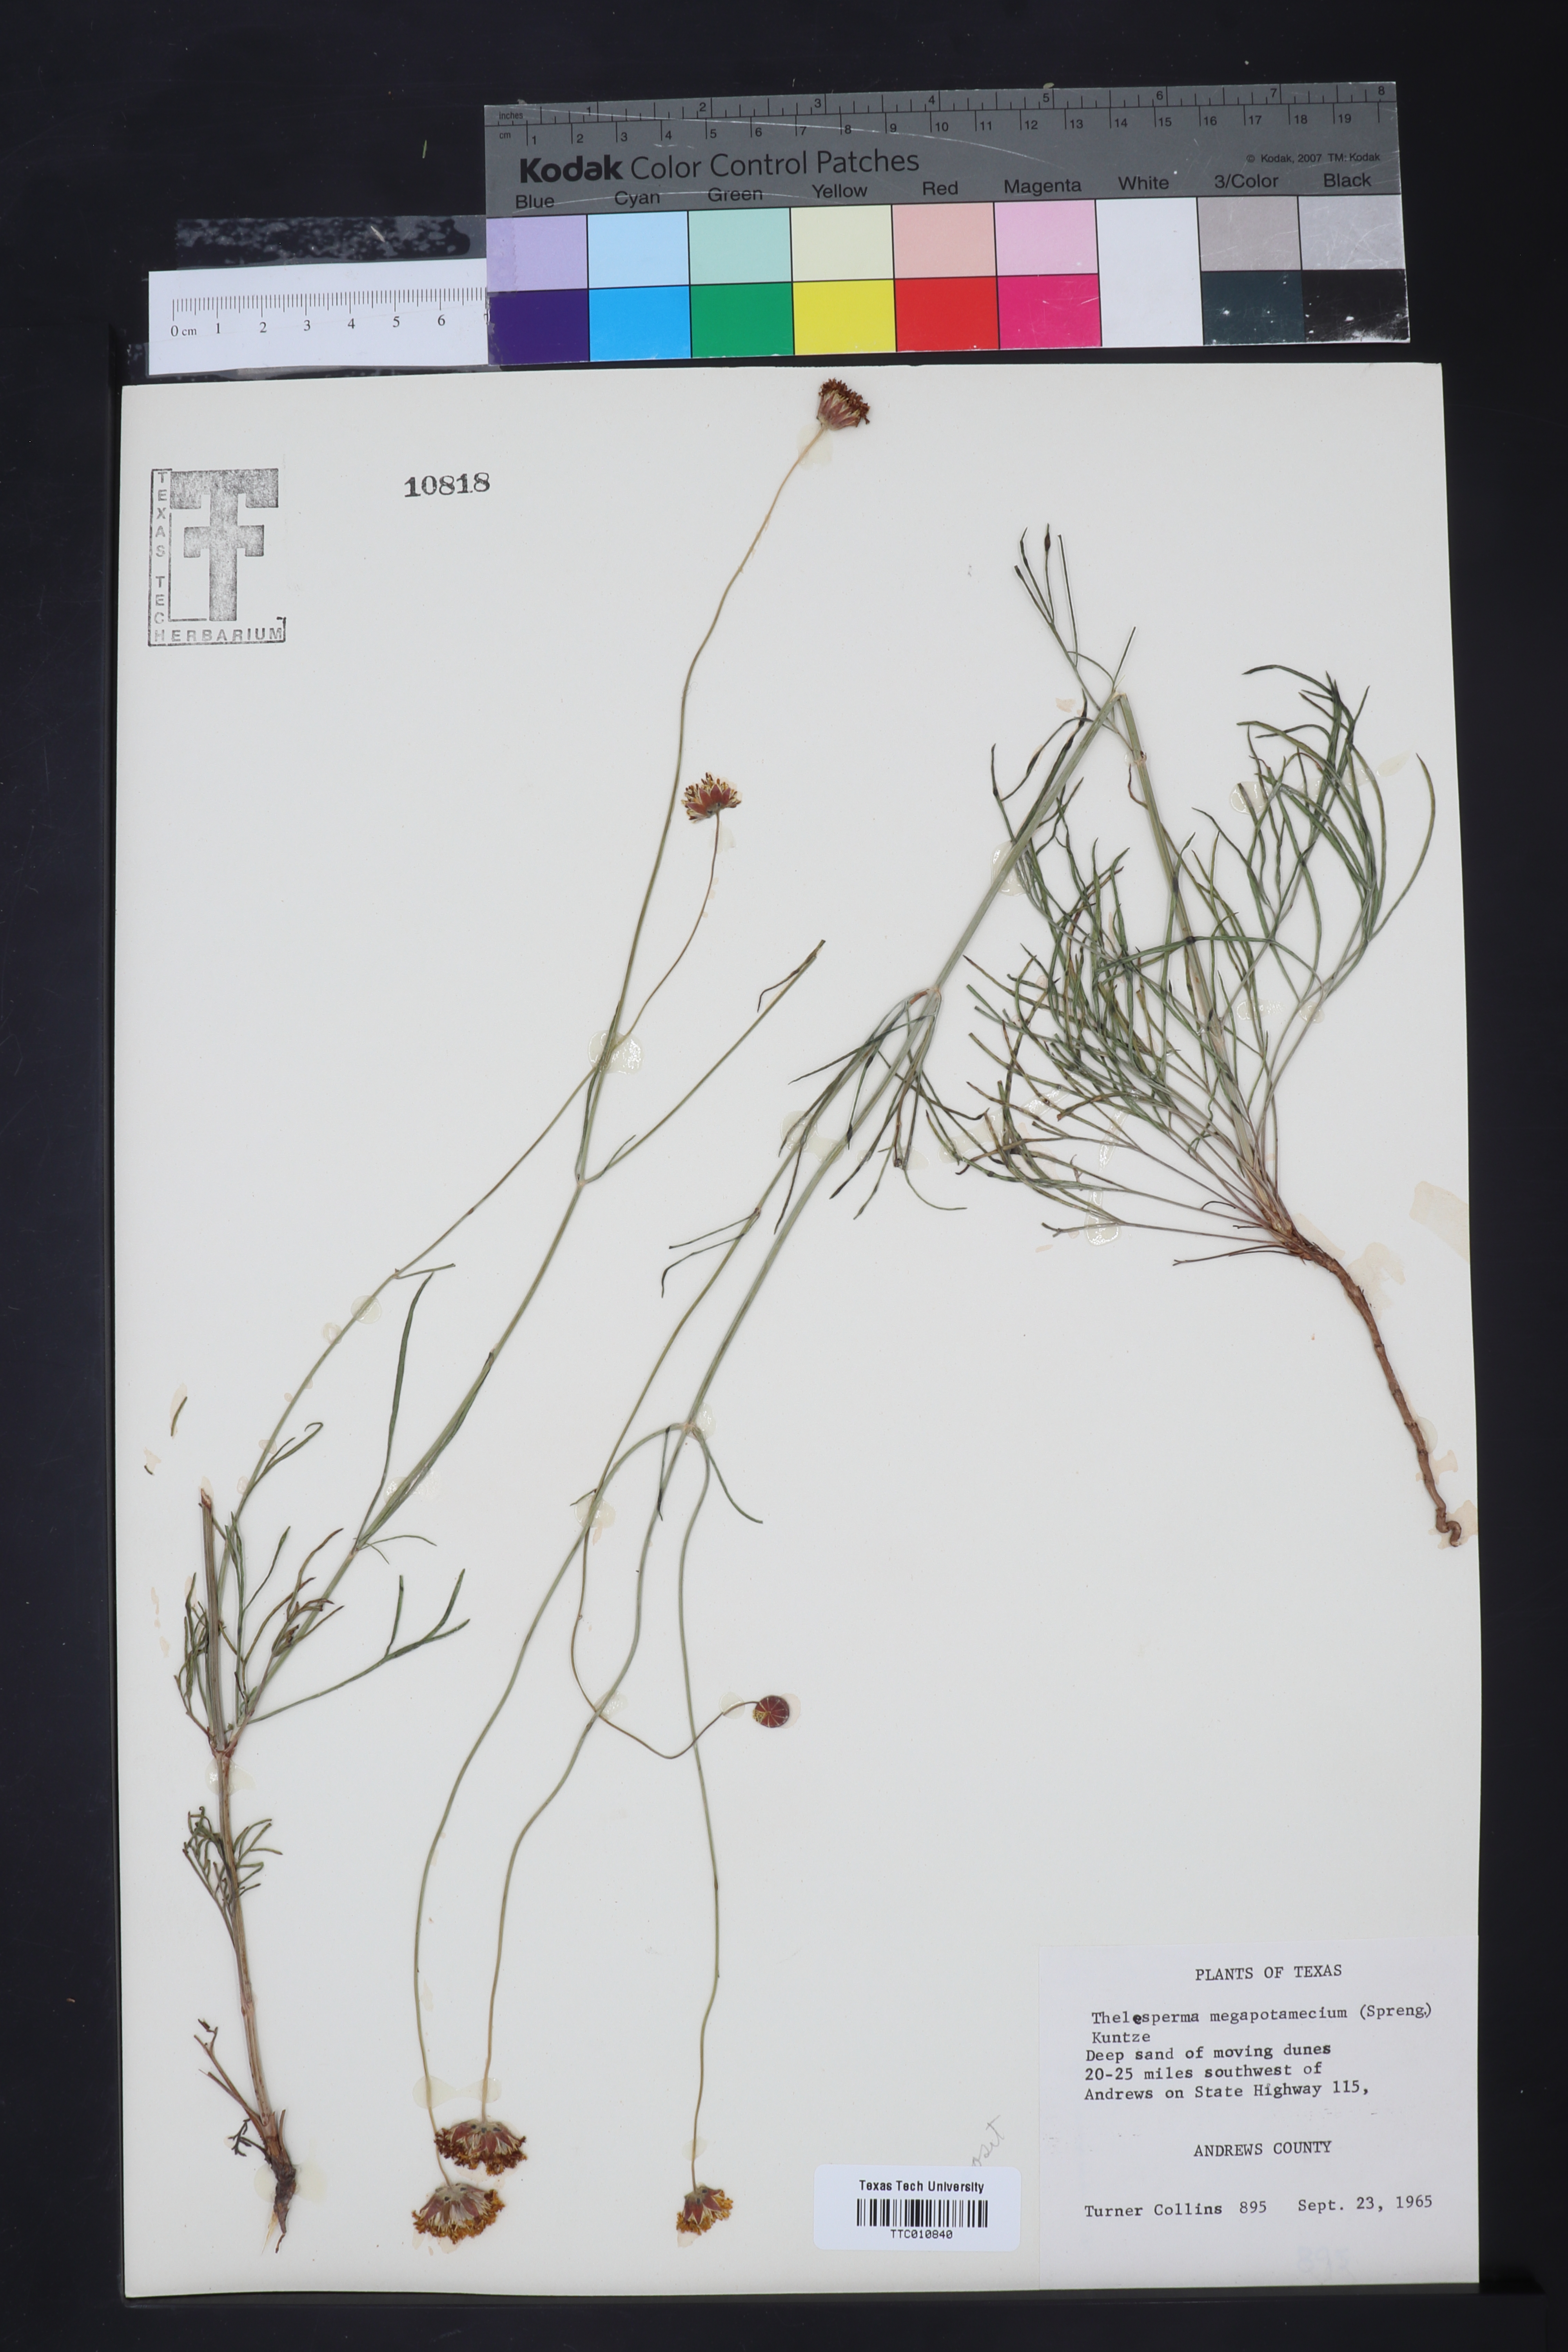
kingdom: Plantae
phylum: Tracheophyta
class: Magnoliopsida
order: Asterales
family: Asteraceae
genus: Thelesperma
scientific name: Thelesperma megapotamicum
